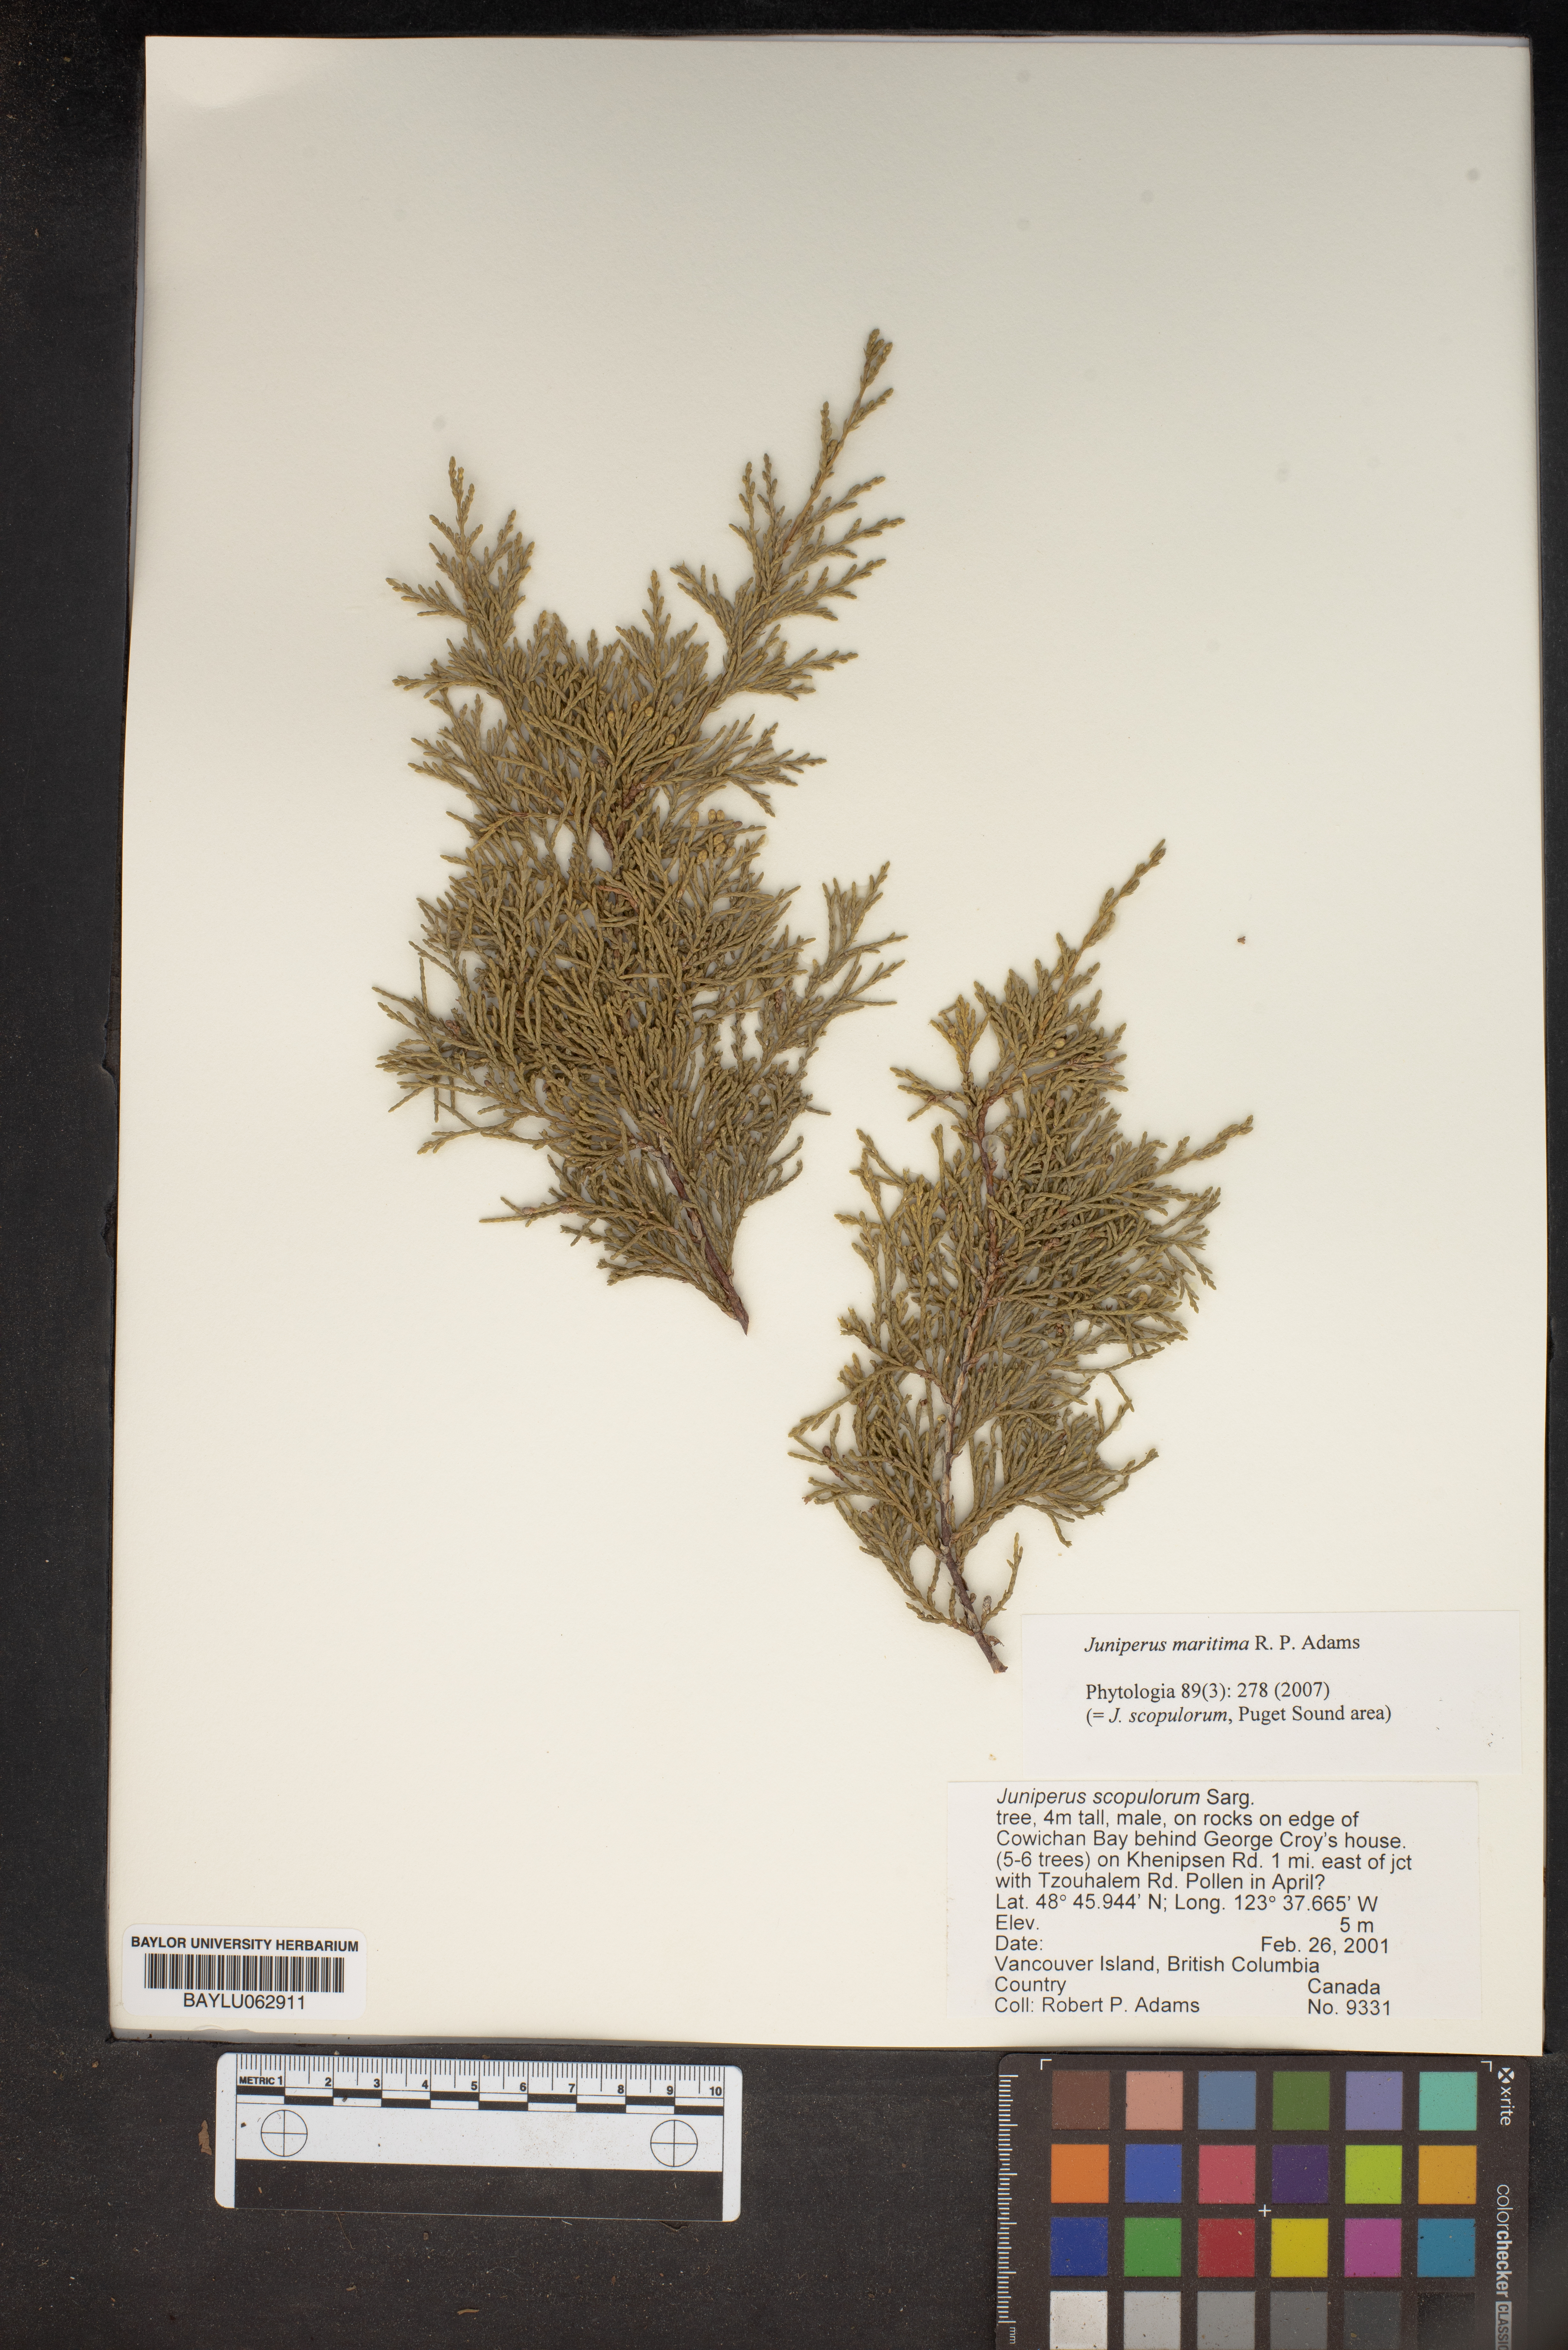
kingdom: Plantae
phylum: Tracheophyta
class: Pinopsida
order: Pinales
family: Cupressaceae
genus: Juniperus
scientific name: Juniperus scopulorum
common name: Rocky mountain juniper
